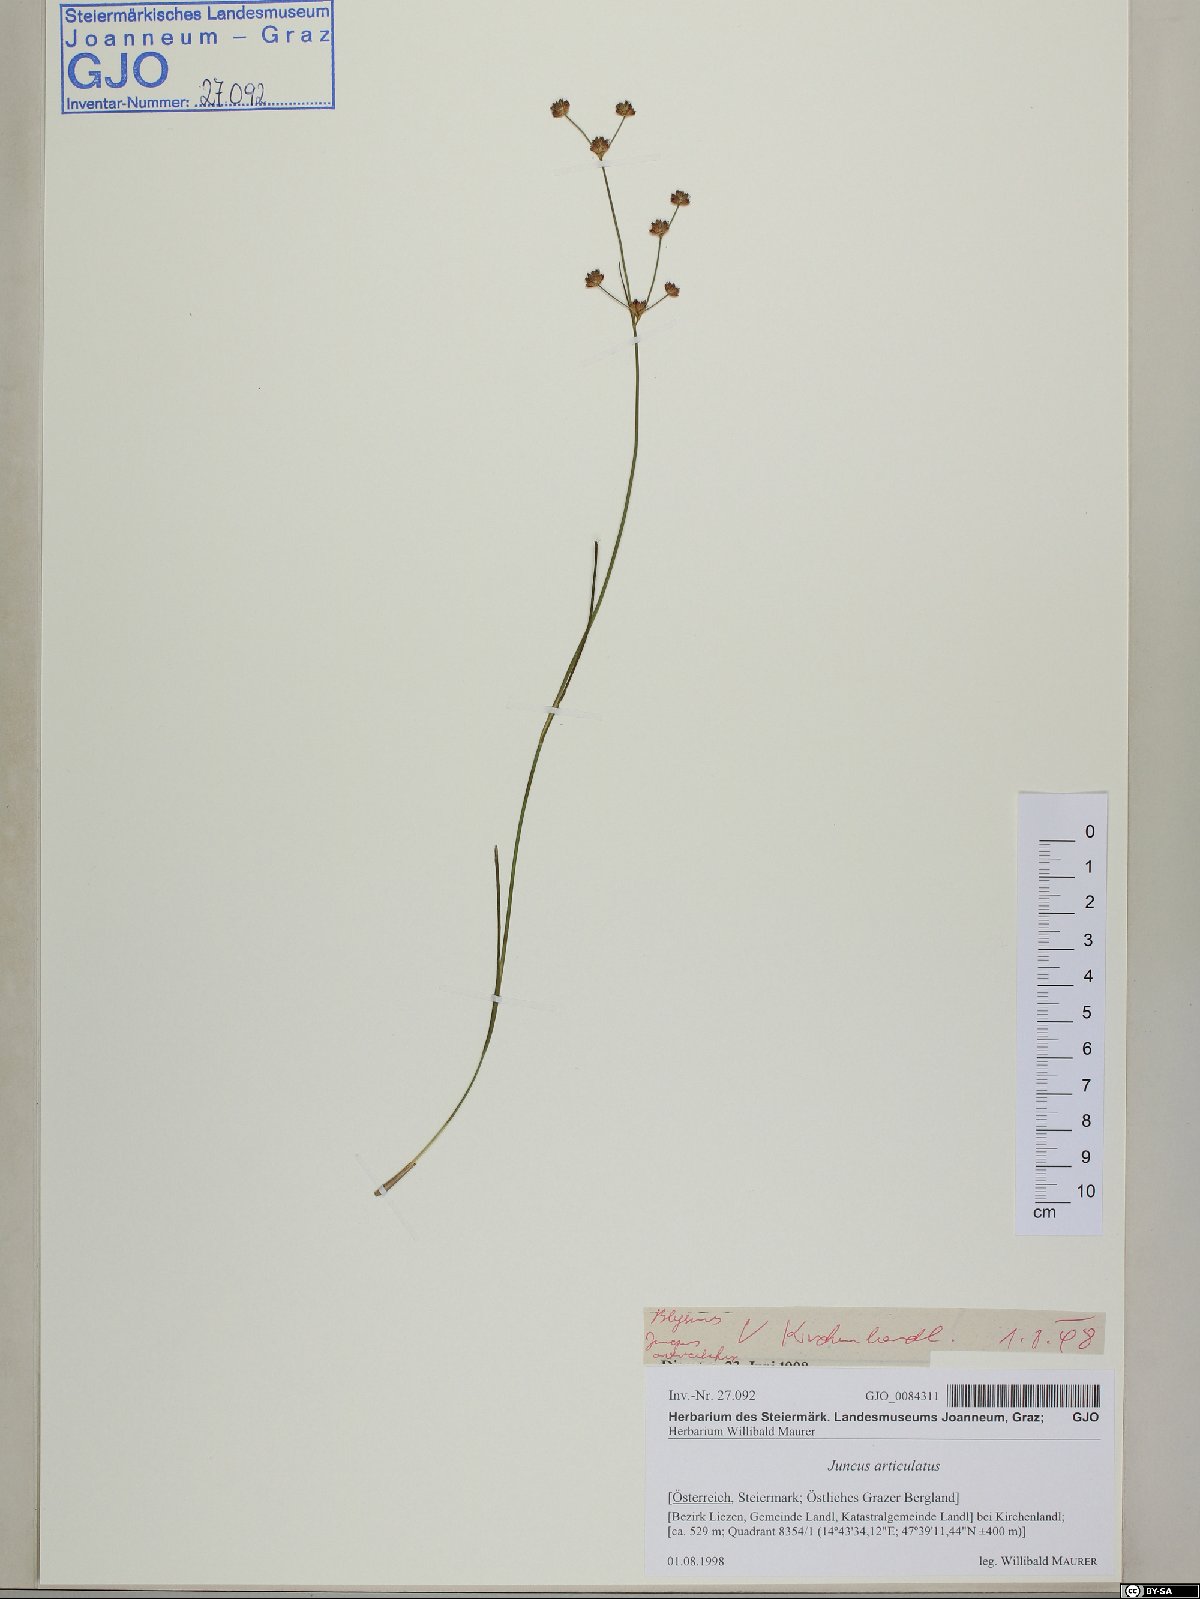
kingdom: Plantae
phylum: Tracheophyta
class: Liliopsida
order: Poales
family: Juncaceae
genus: Juncus
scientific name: Juncus articulatus
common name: Jointed rush
